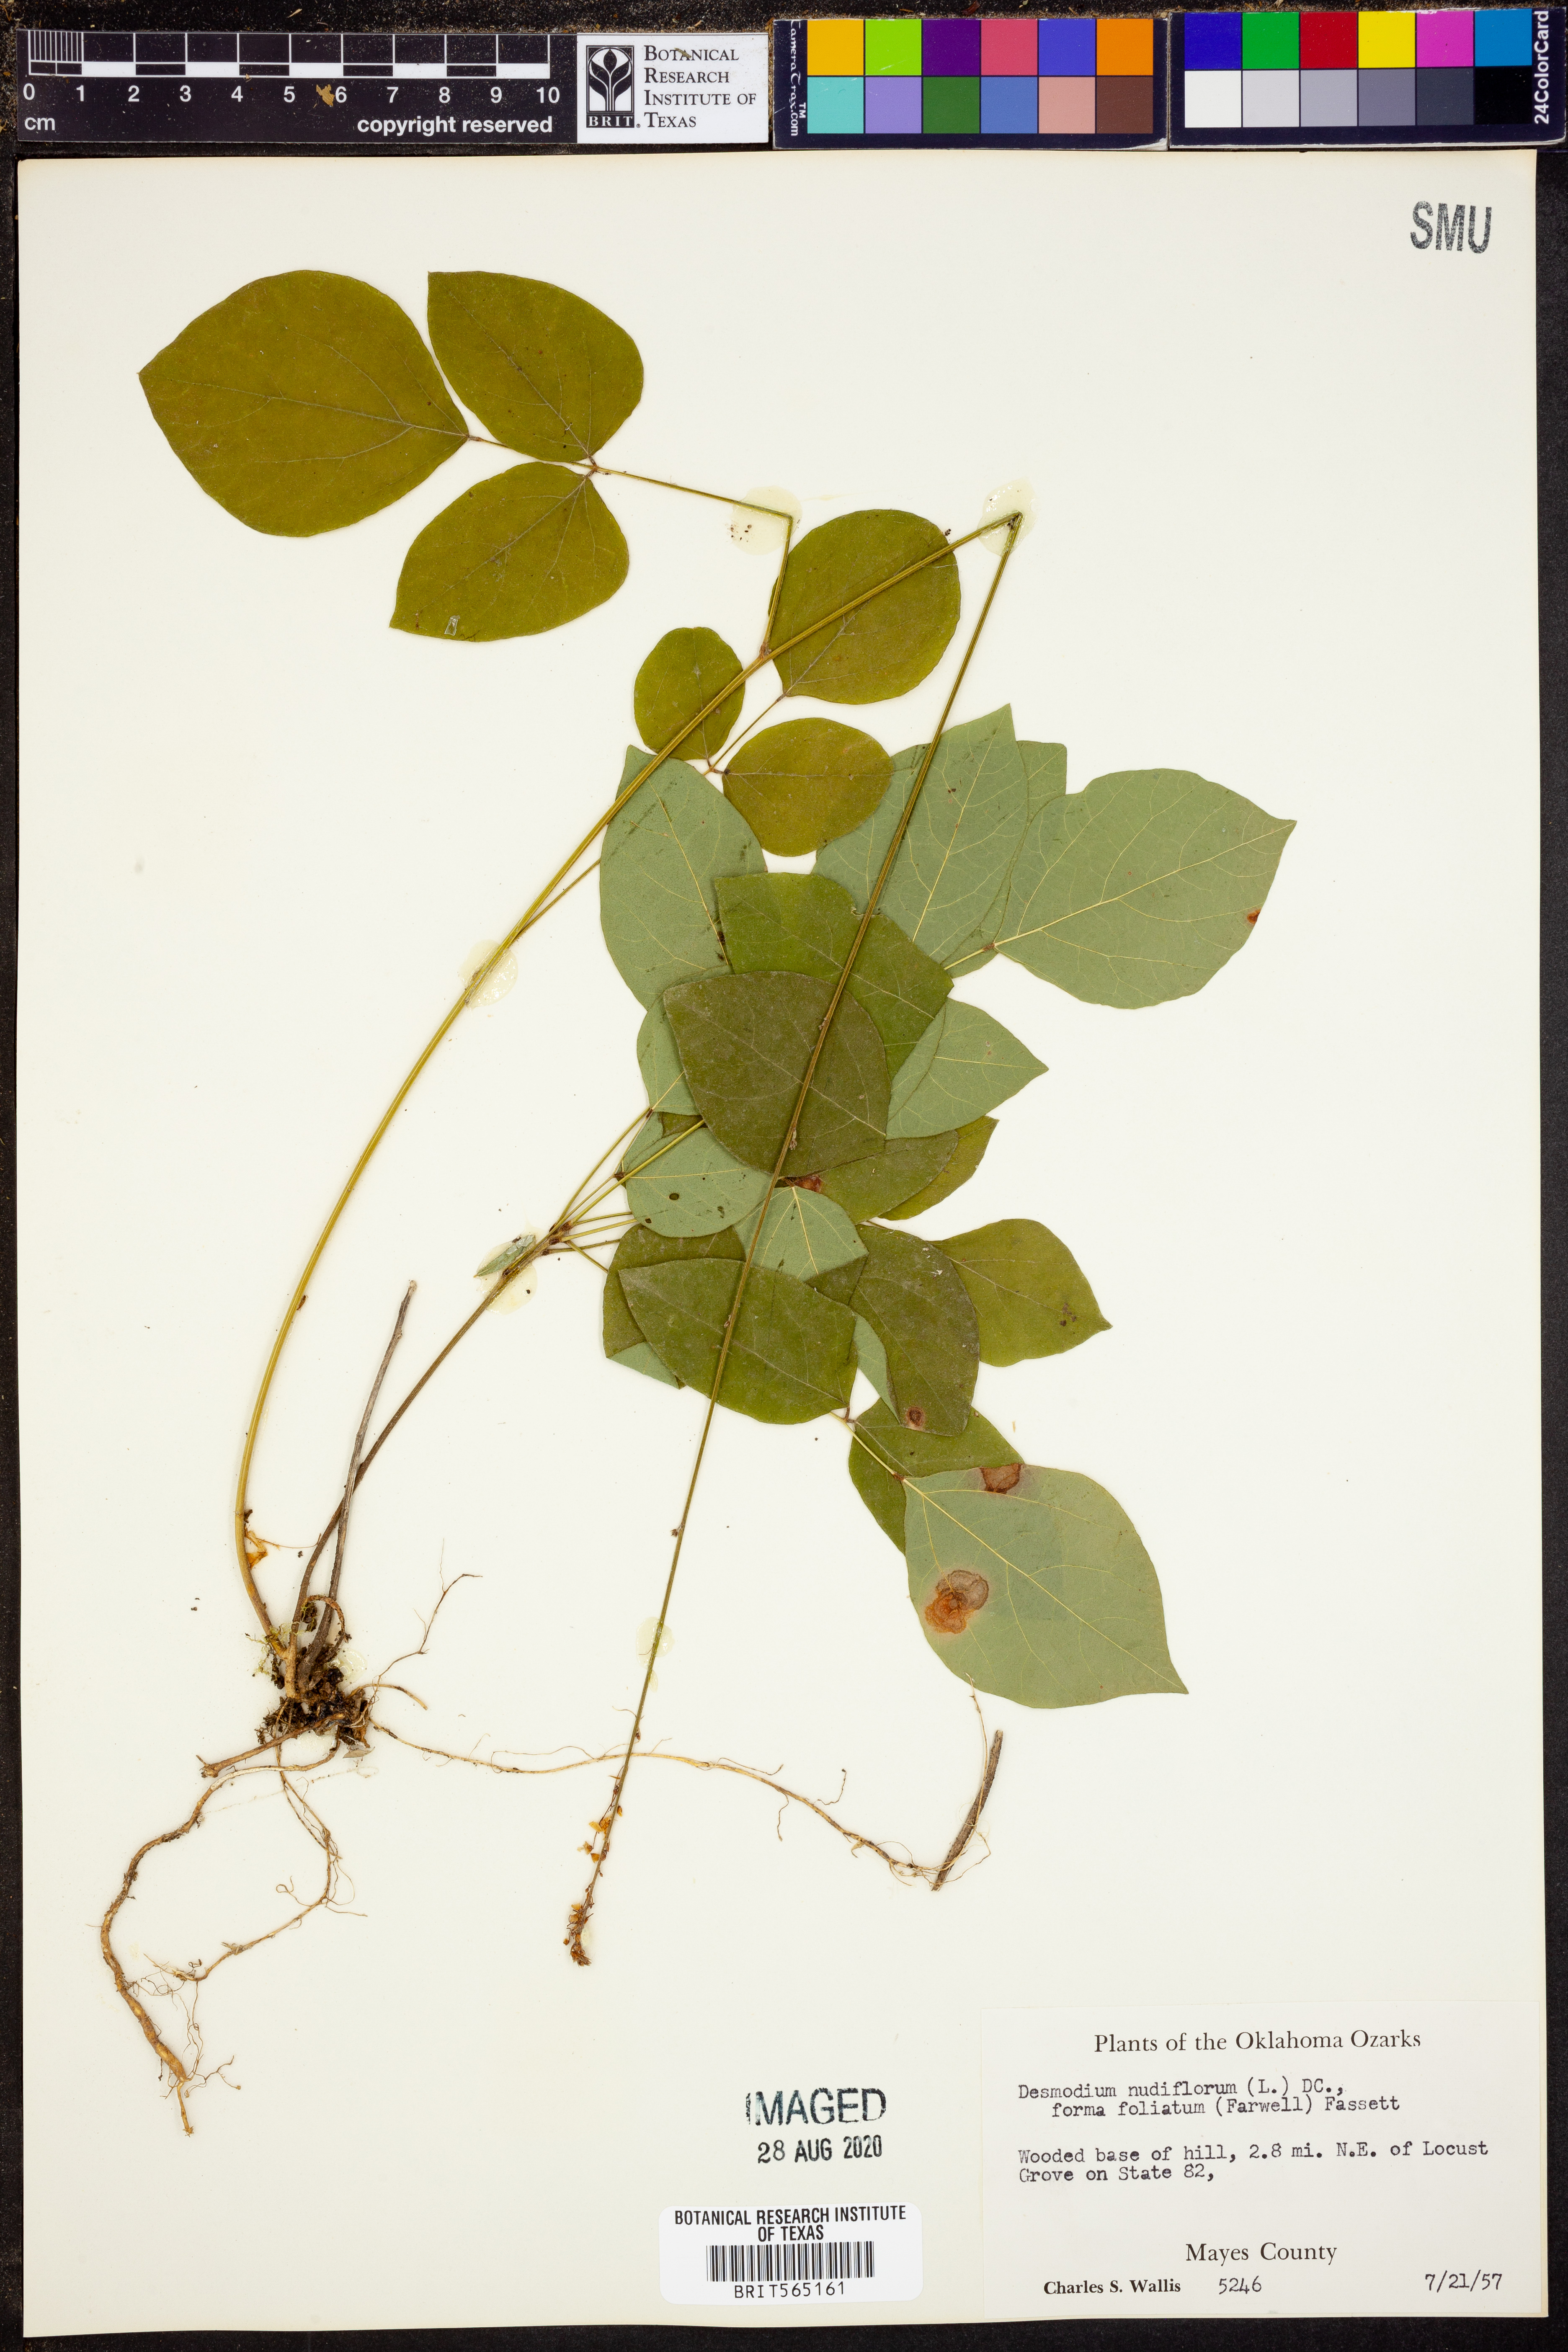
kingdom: Plantae
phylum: Tracheophyta
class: Magnoliopsida
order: Fabales
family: Fabaceae
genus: Hylodesmum
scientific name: Hylodesmum nudiflorum
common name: Bare-stemmed tick-trefoil
